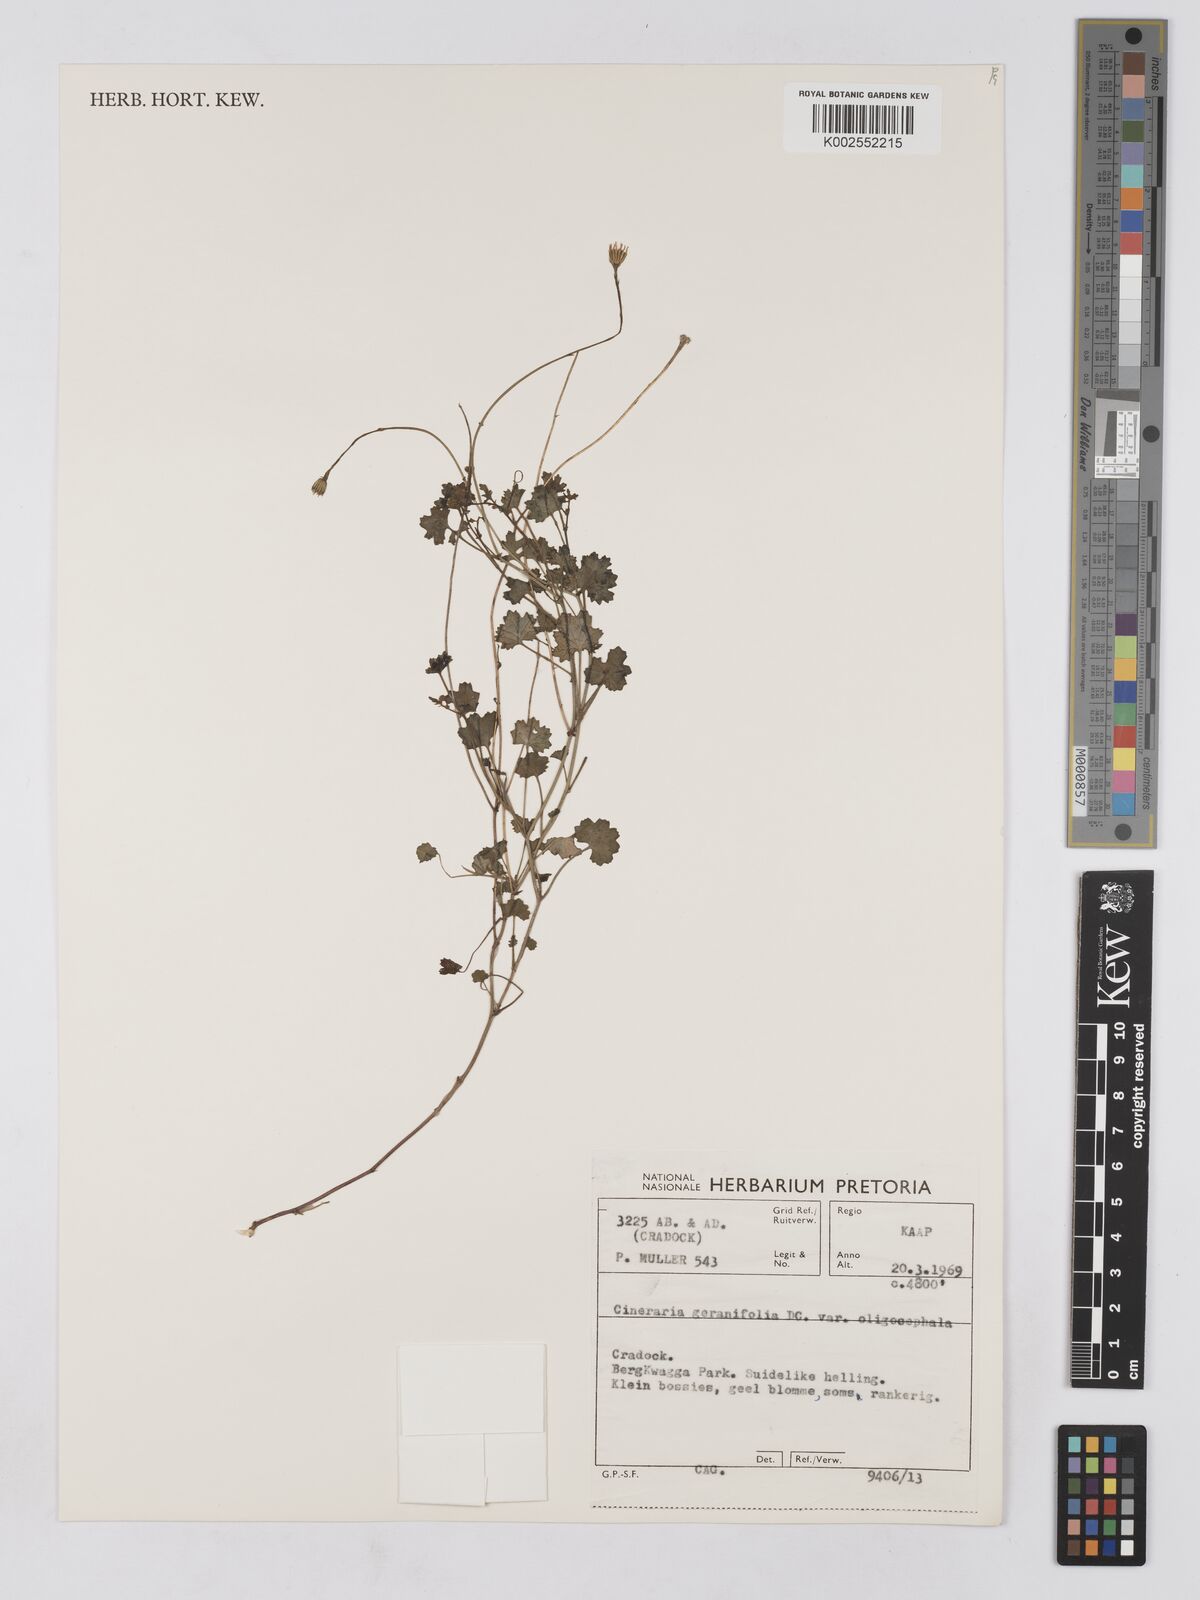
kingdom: Plantae
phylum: Tracheophyta
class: Magnoliopsida
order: Asterales
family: Asteraceae
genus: Cineraria
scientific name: Cineraria geraniifolia
